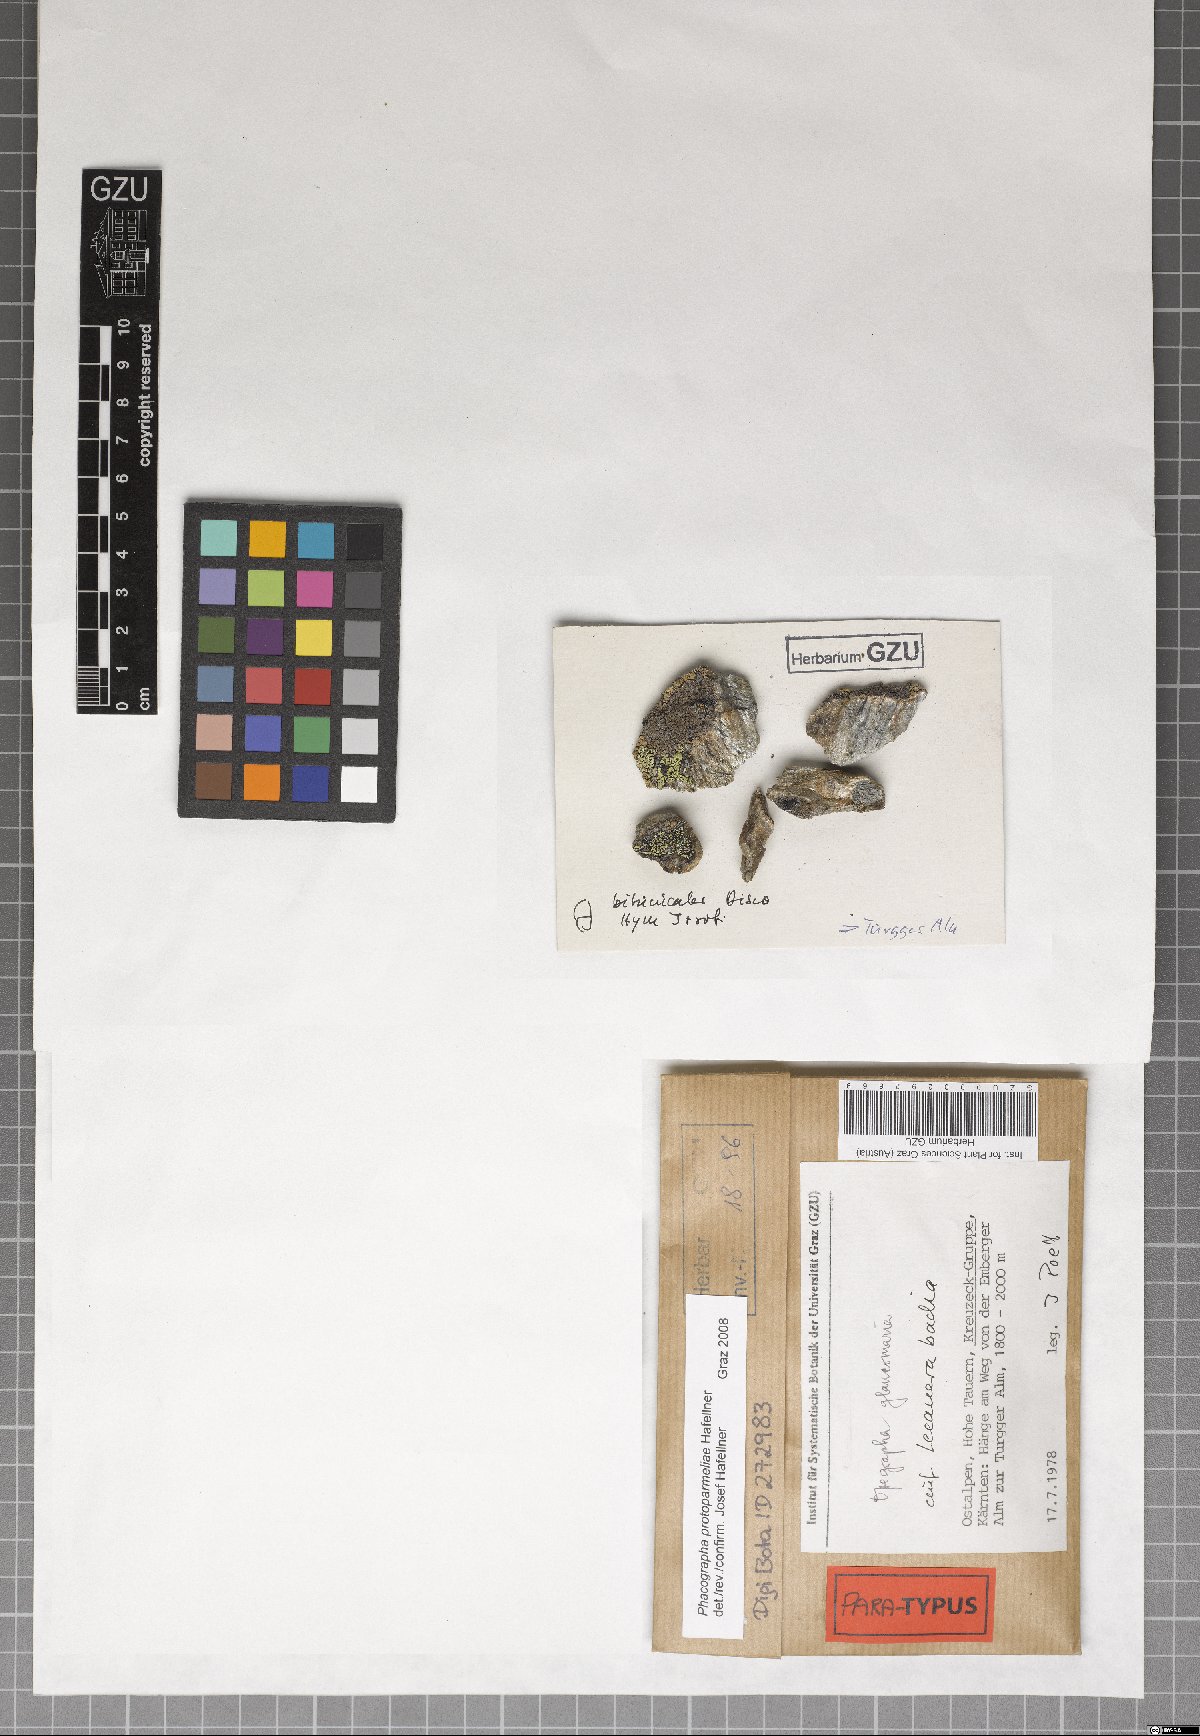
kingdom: Fungi
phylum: Ascomycota
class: Arthoniomycetes
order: Arthoniales
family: Roccellaceae
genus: Phacographa
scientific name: Phacographa protoparmeliae
